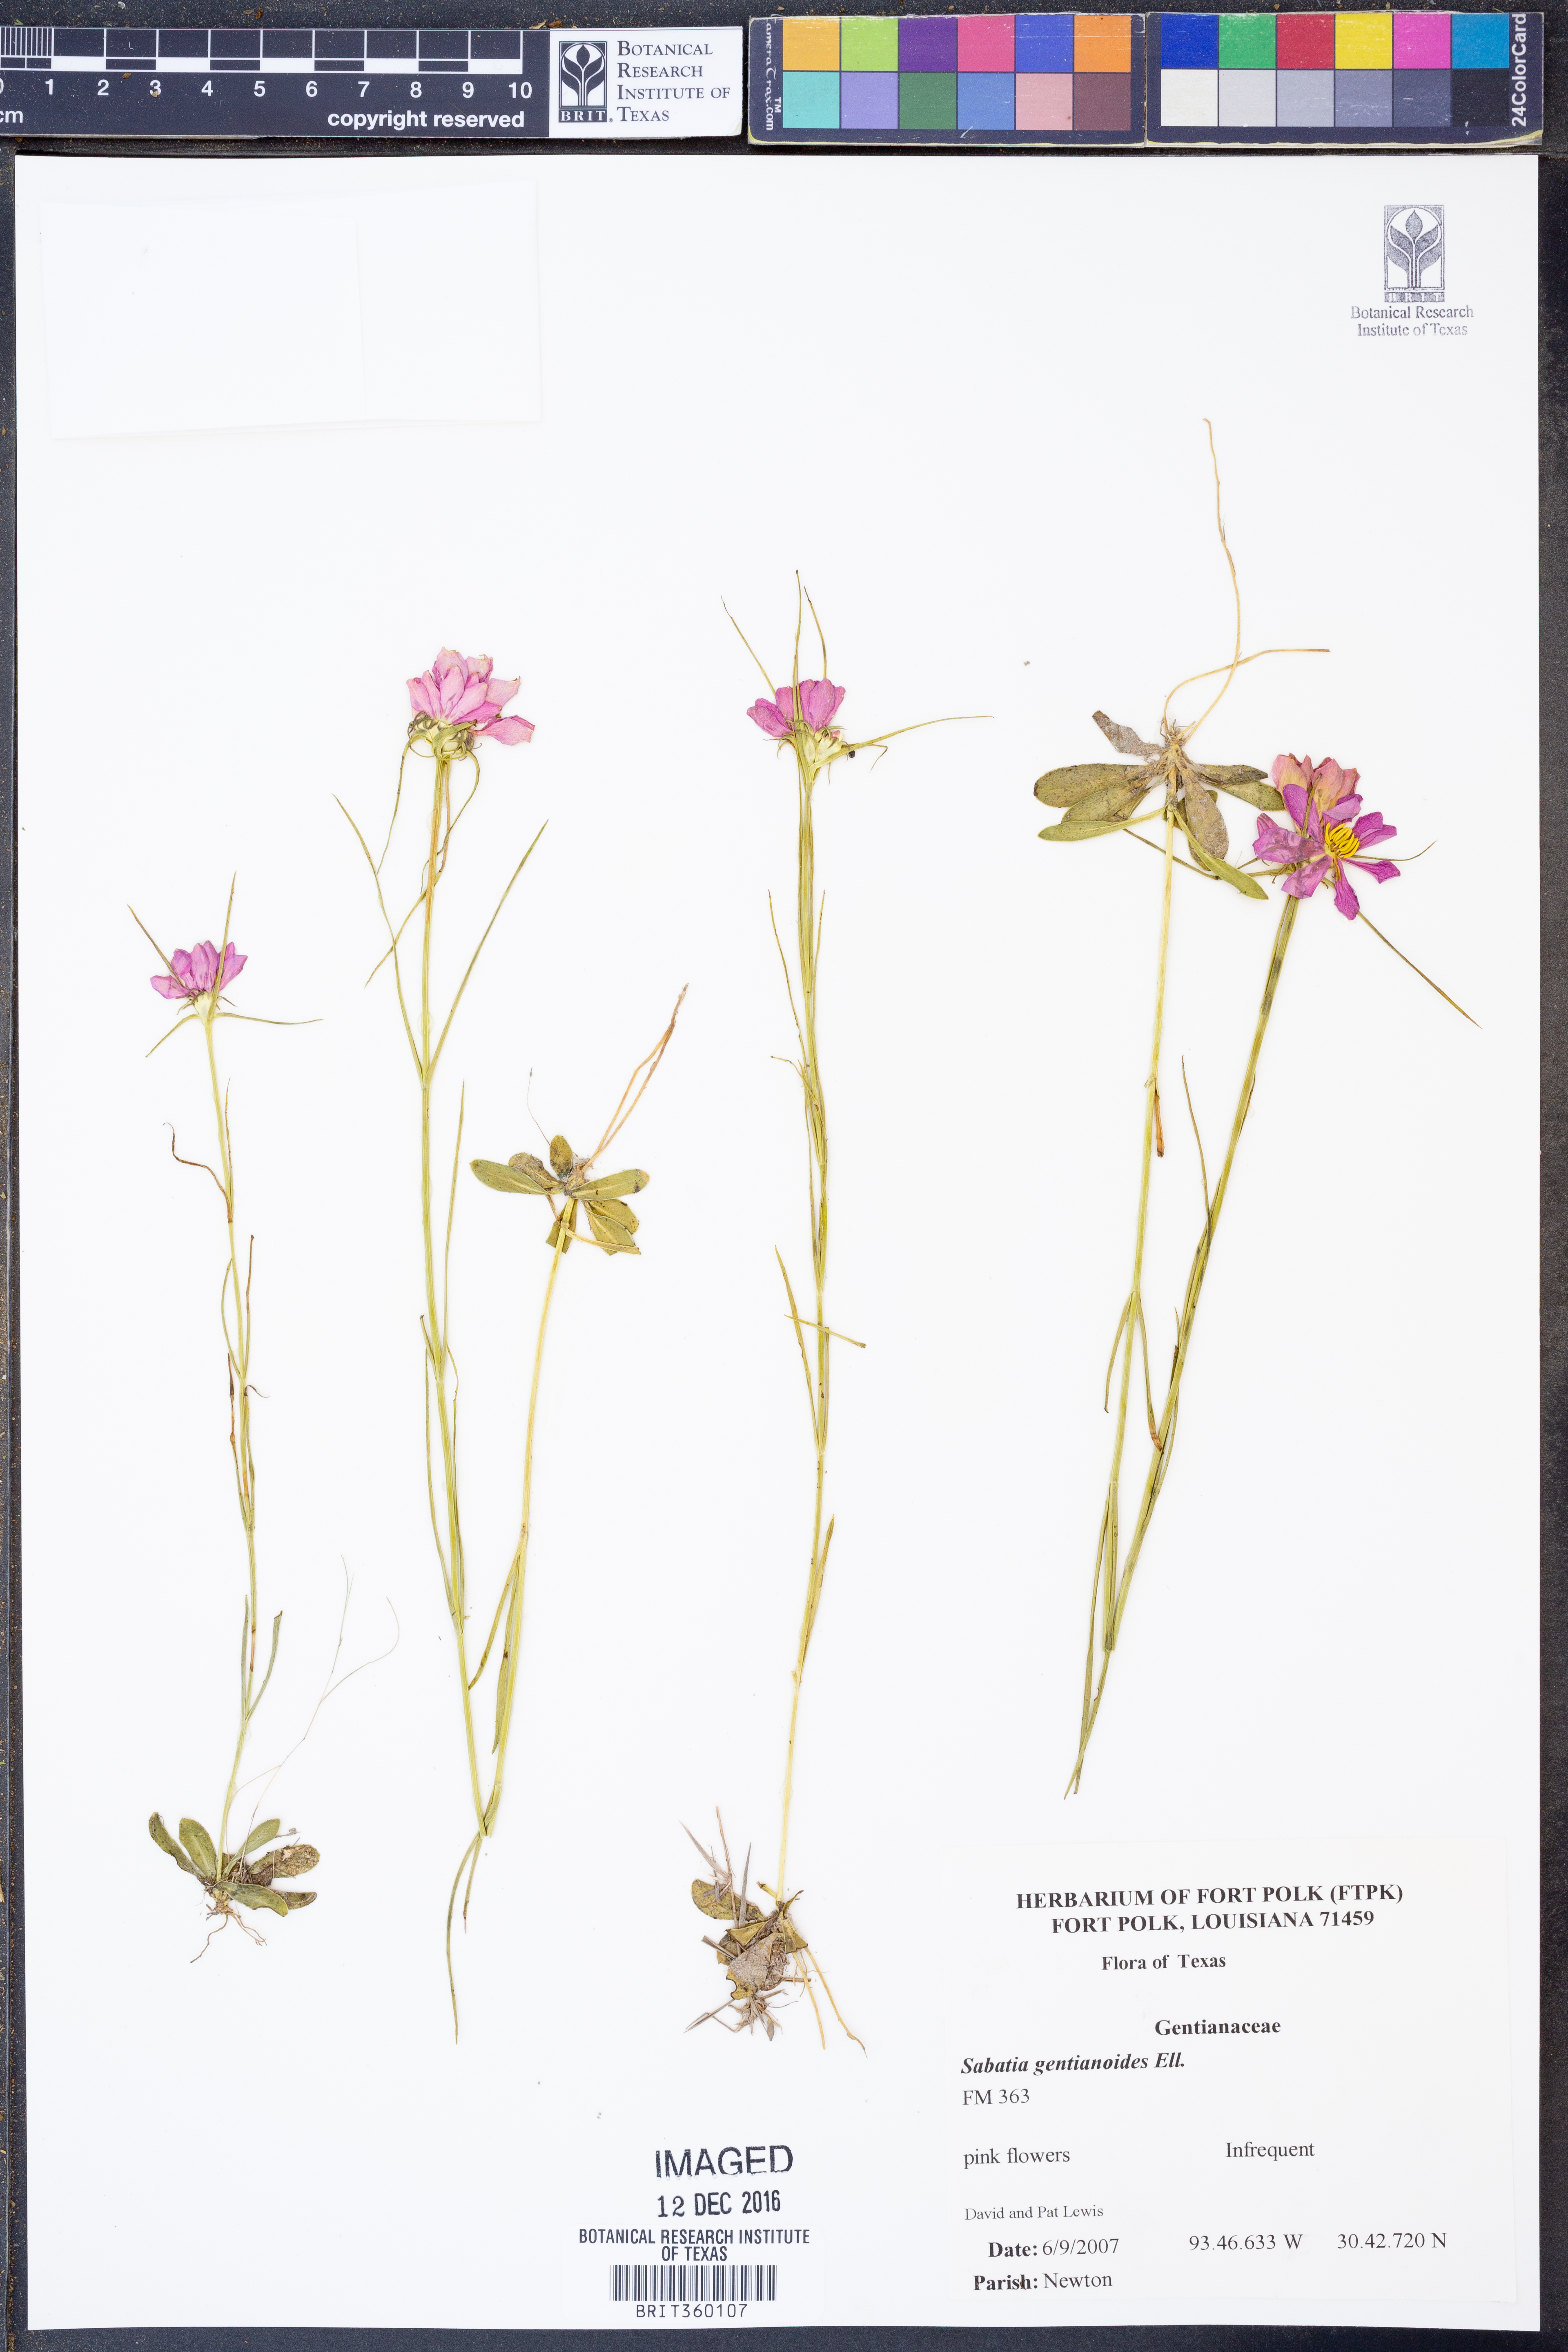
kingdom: Plantae
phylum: Tracheophyta
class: Magnoliopsida
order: Gentianales
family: Gentianaceae
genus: Sabatia
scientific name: Sabatia gentianoides
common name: Pinewoods rose-gentian
